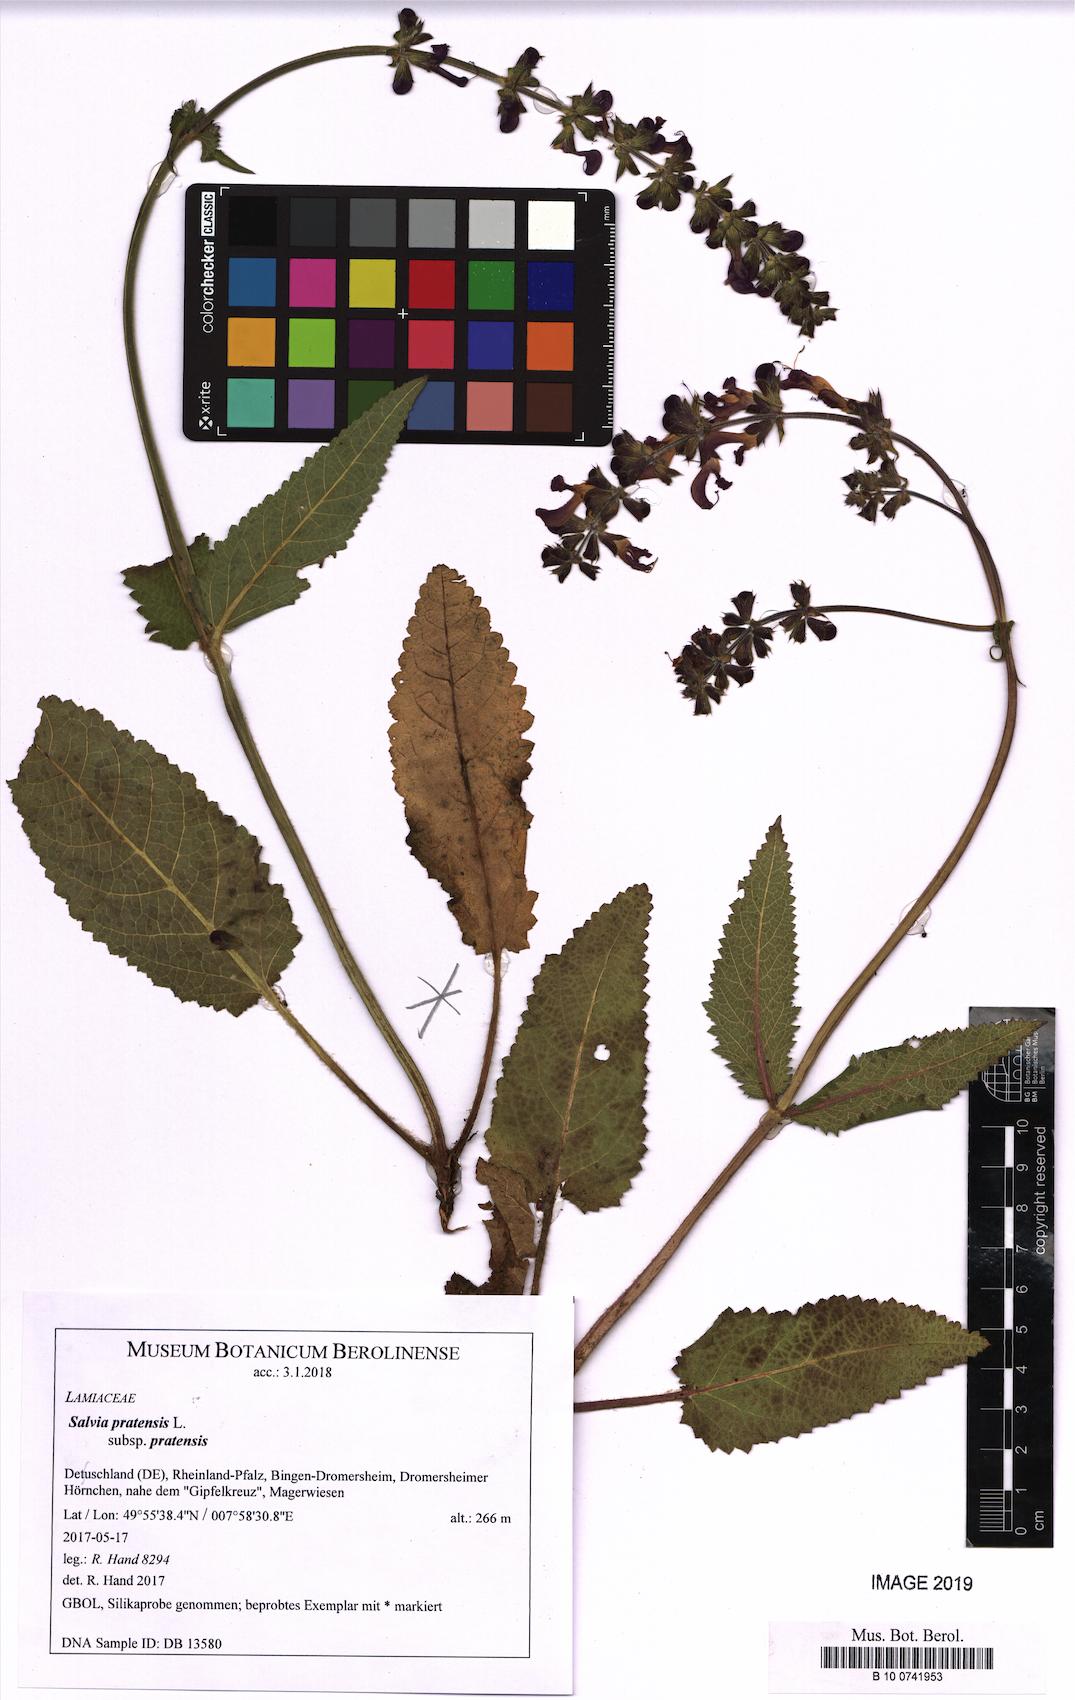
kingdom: Plantae
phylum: Tracheophyta
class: Magnoliopsida
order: Lamiales
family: Lamiaceae
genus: Salvia
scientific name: Salvia pratensis
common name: Meadow sage
